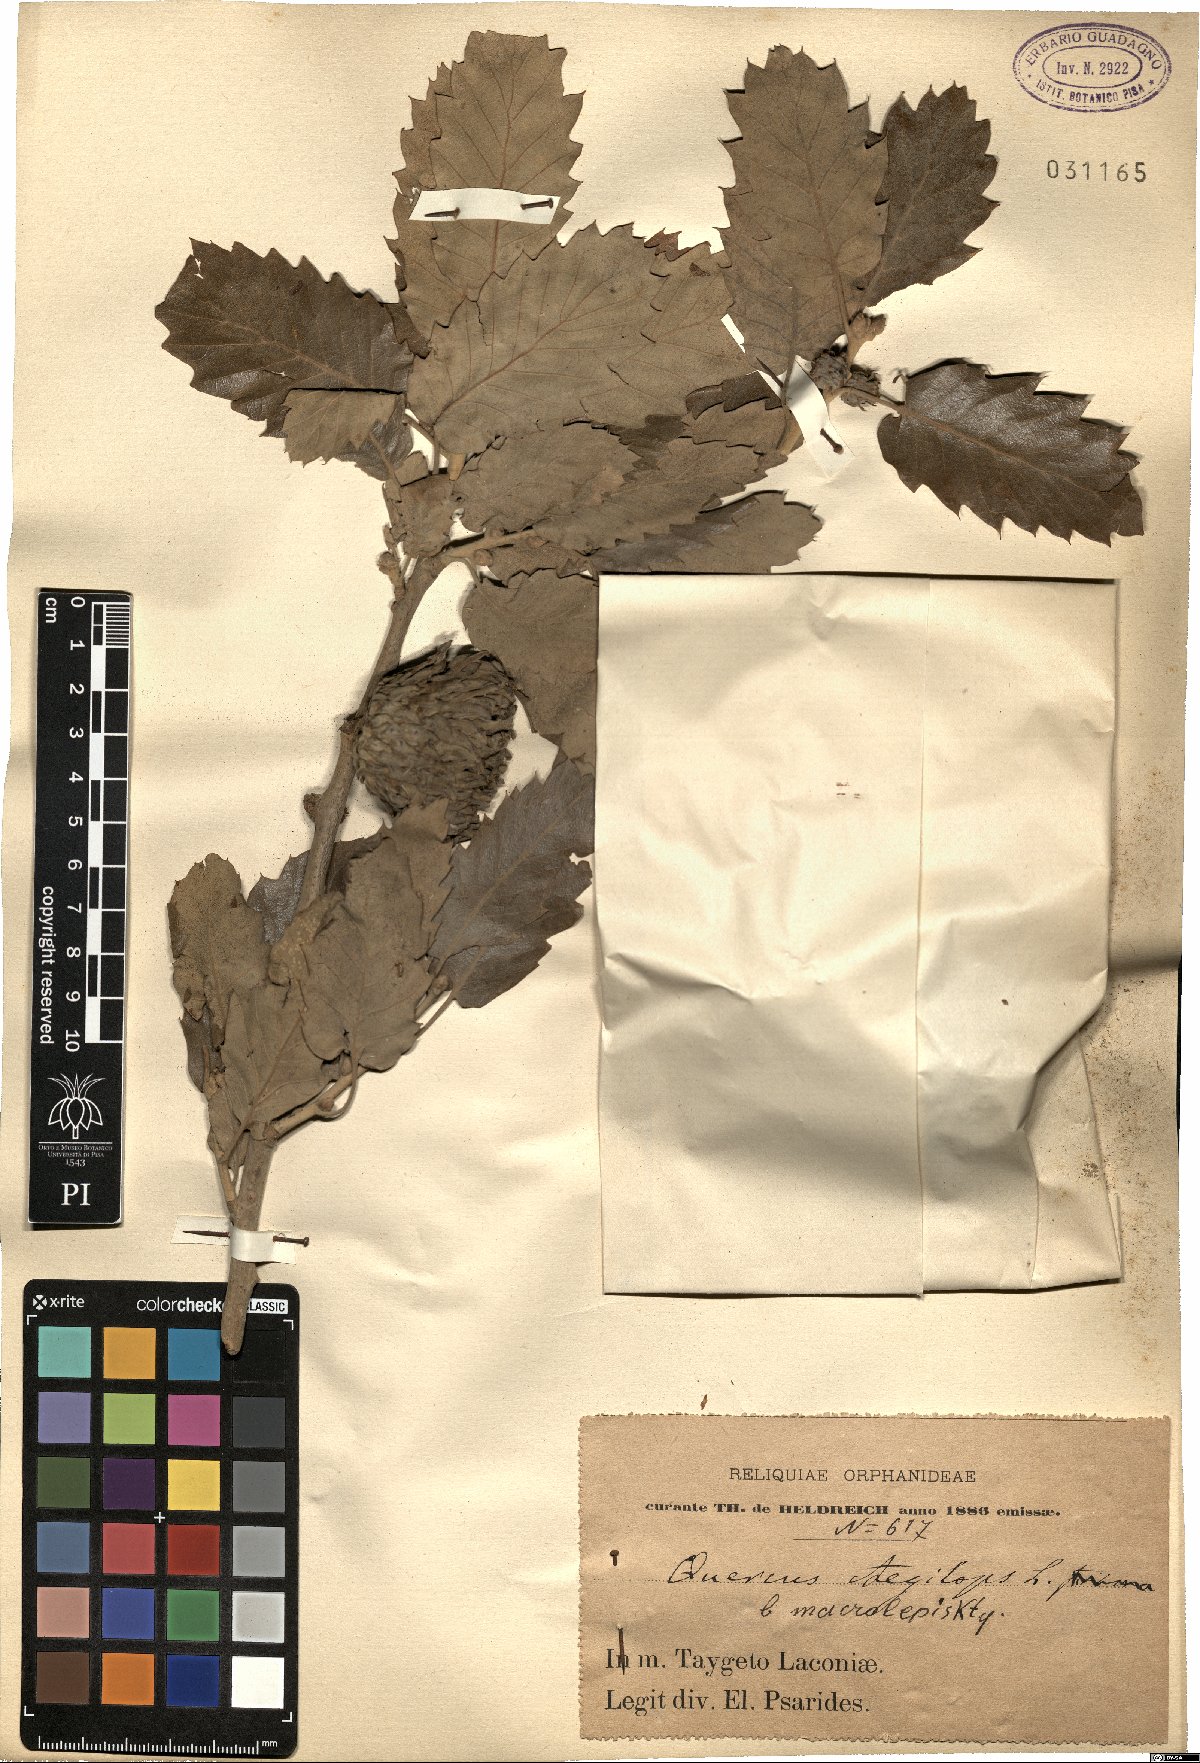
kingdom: Plantae
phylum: Tracheophyta
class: Magnoliopsida
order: Fagales
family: Fagaceae
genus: Quercus
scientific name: Quercus ithaburensis
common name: Tabor oak
